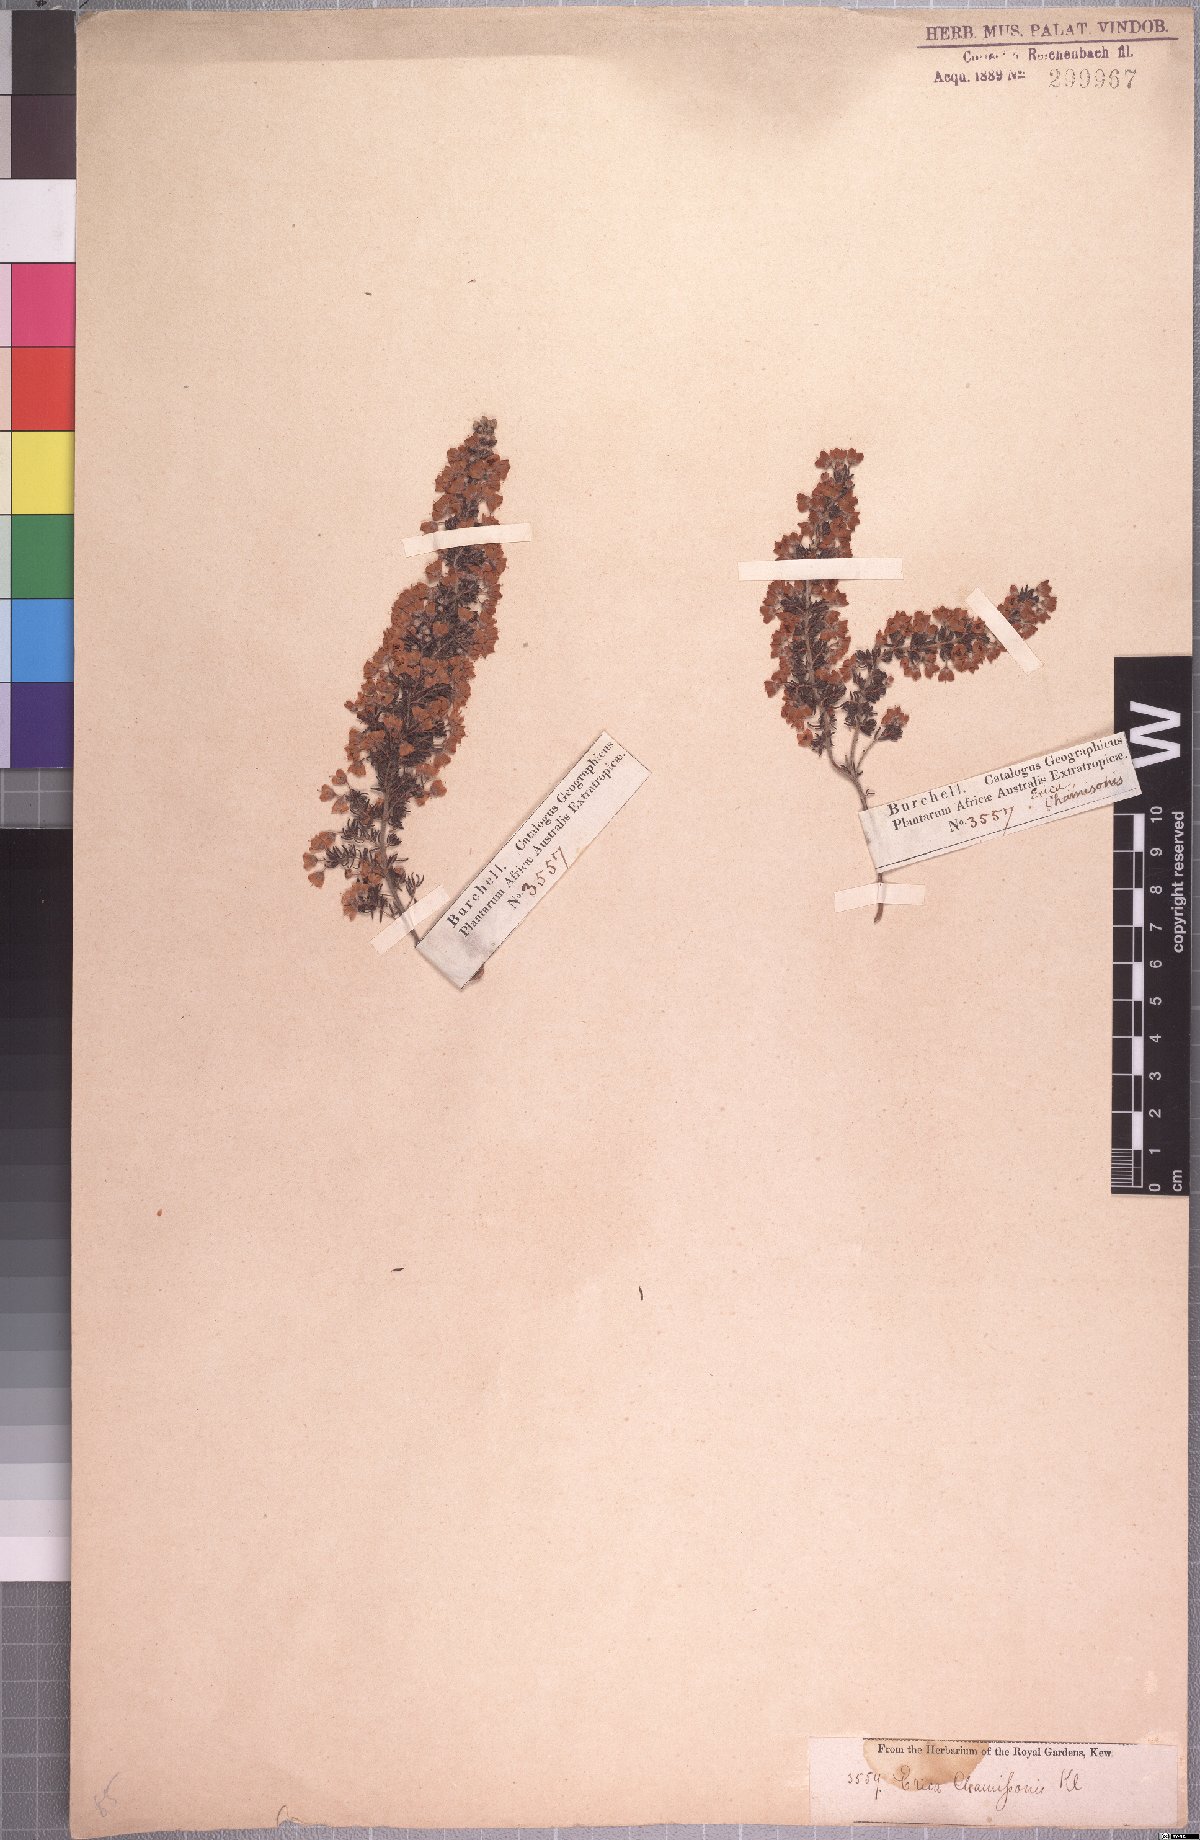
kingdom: Plantae
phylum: Tracheophyta
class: Magnoliopsida
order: Ericales
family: Ericaceae
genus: Erica
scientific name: Erica chamissonis
